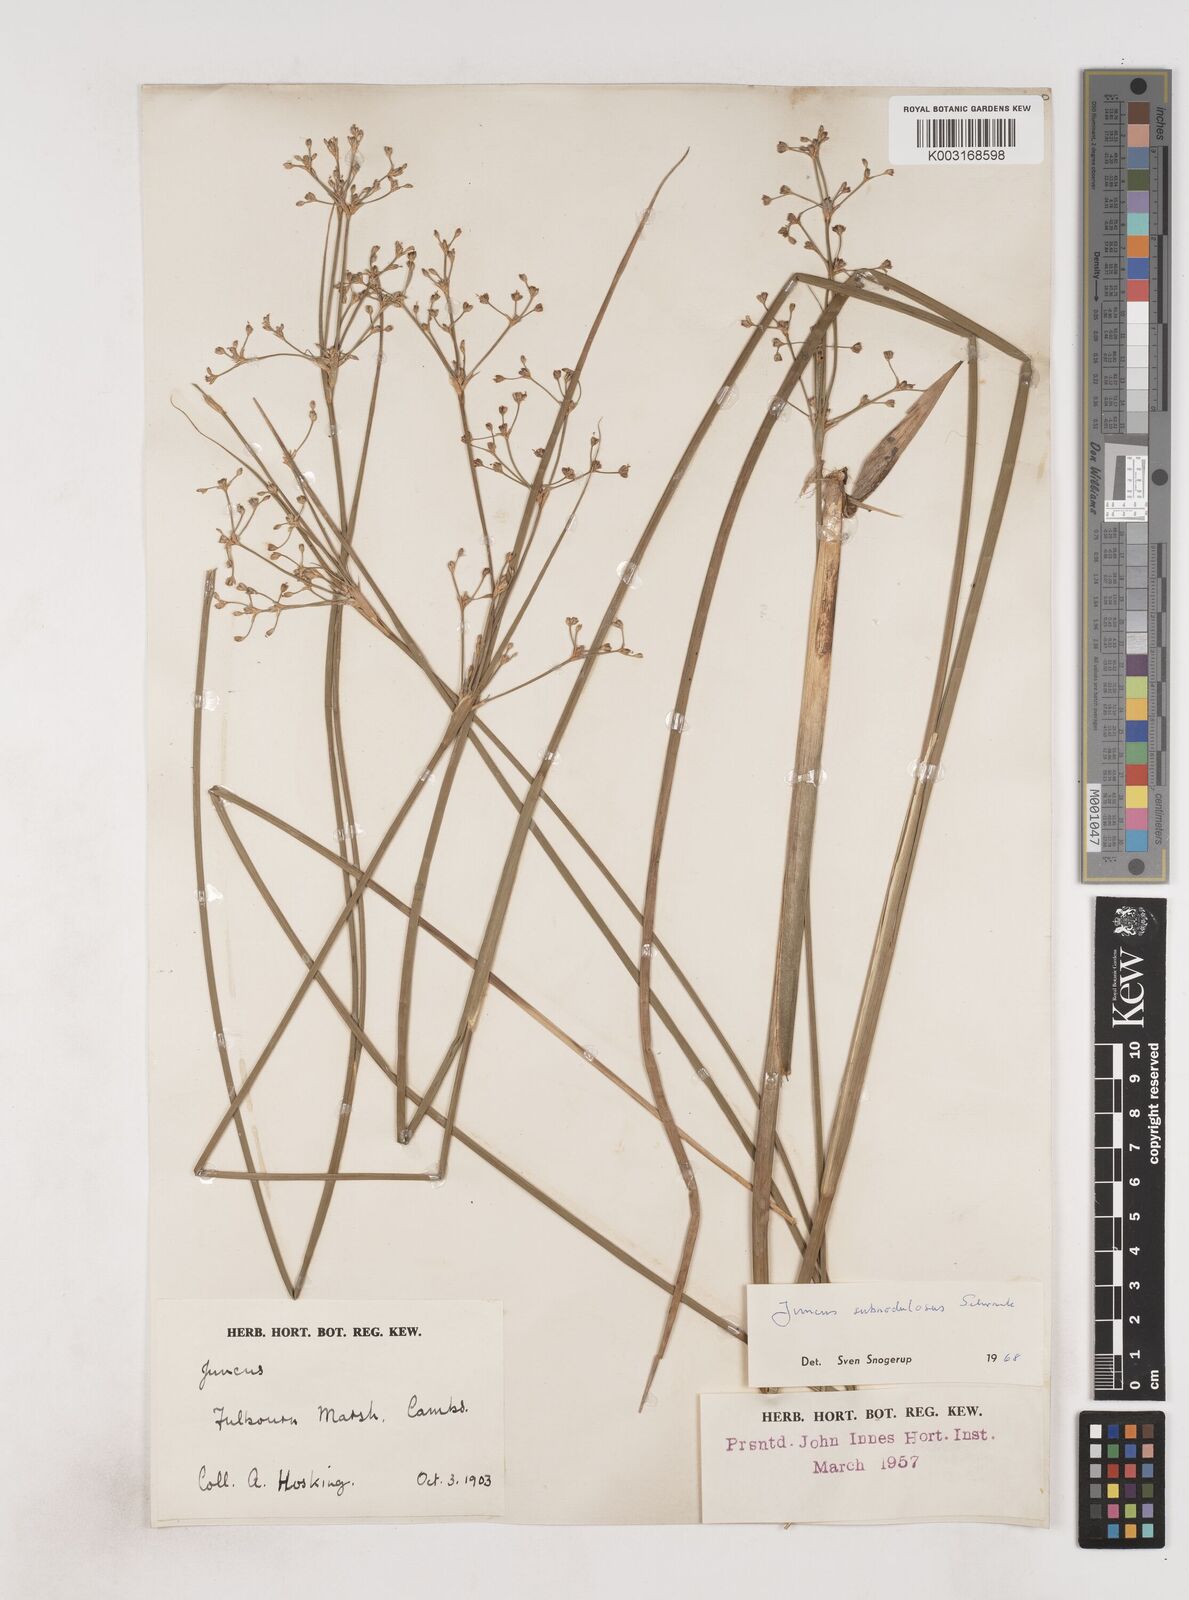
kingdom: Plantae
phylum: Tracheophyta
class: Liliopsida
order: Poales
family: Juncaceae
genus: Juncus
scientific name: Juncus subnodulosus
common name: Blunt-flowered rush
